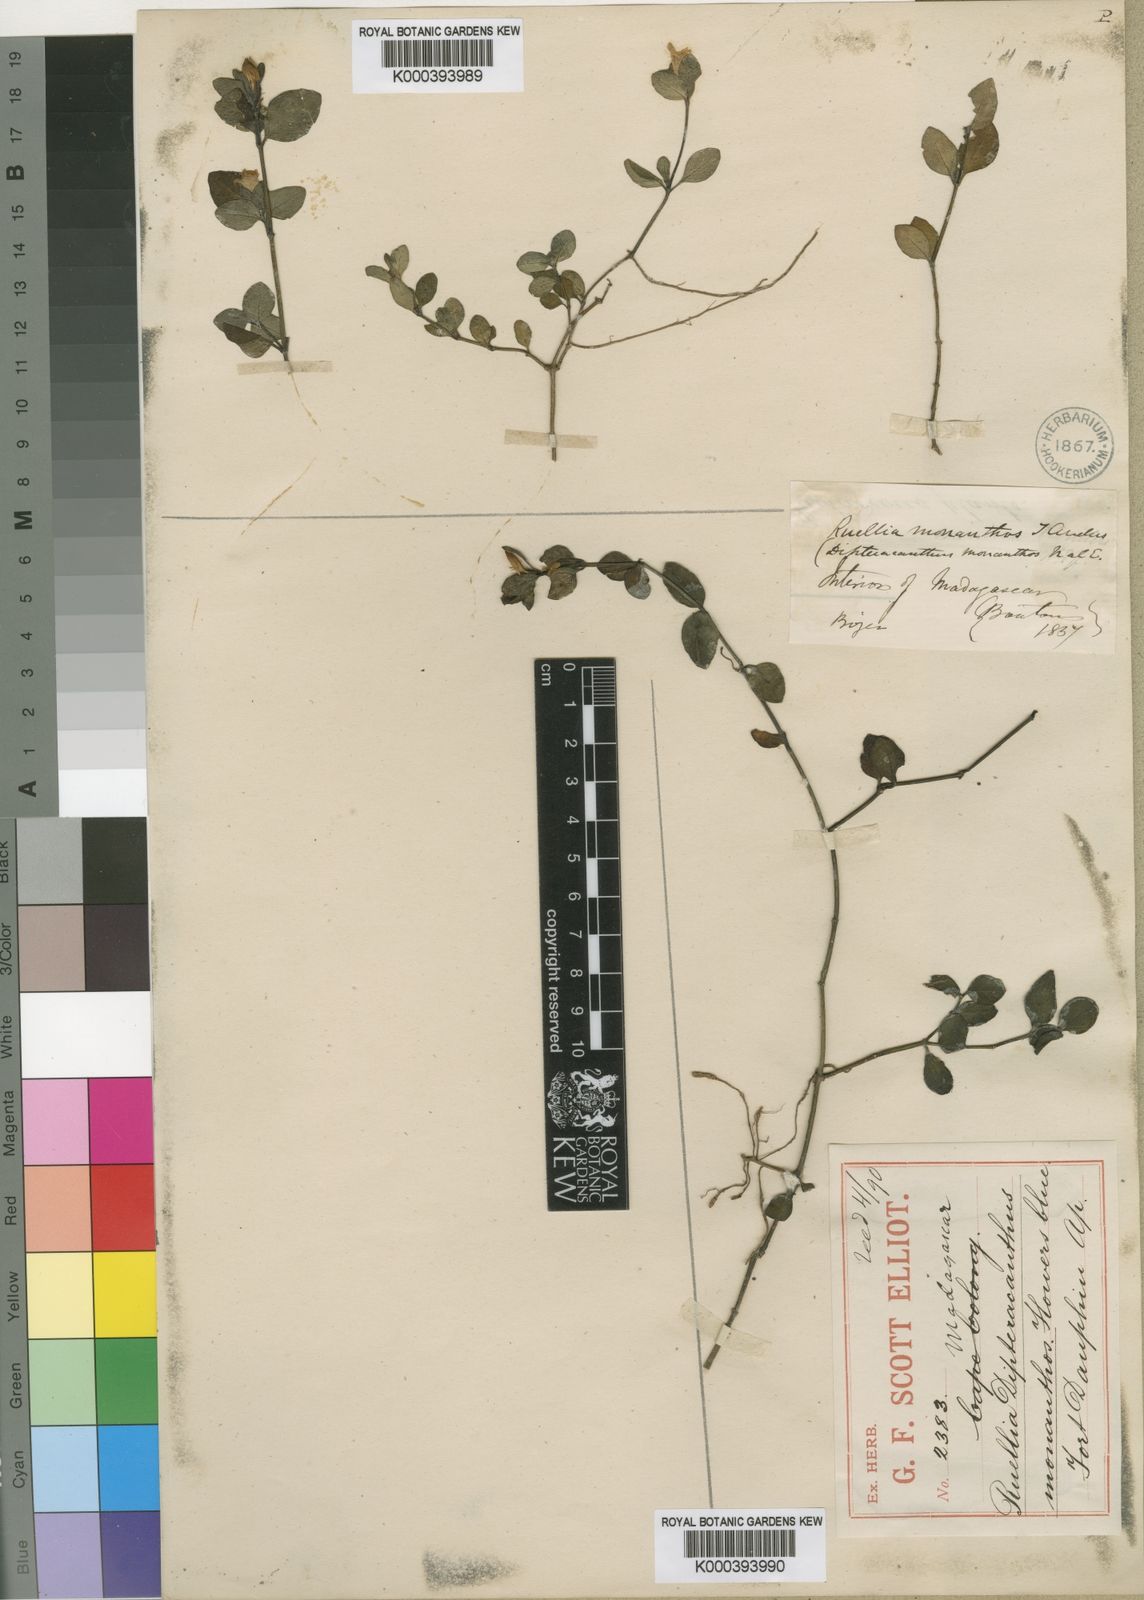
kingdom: Plantae
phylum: Tracheophyta
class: Magnoliopsida
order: Lamiales
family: Acanthaceae
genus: Ruellia
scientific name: Ruellia monanthos
